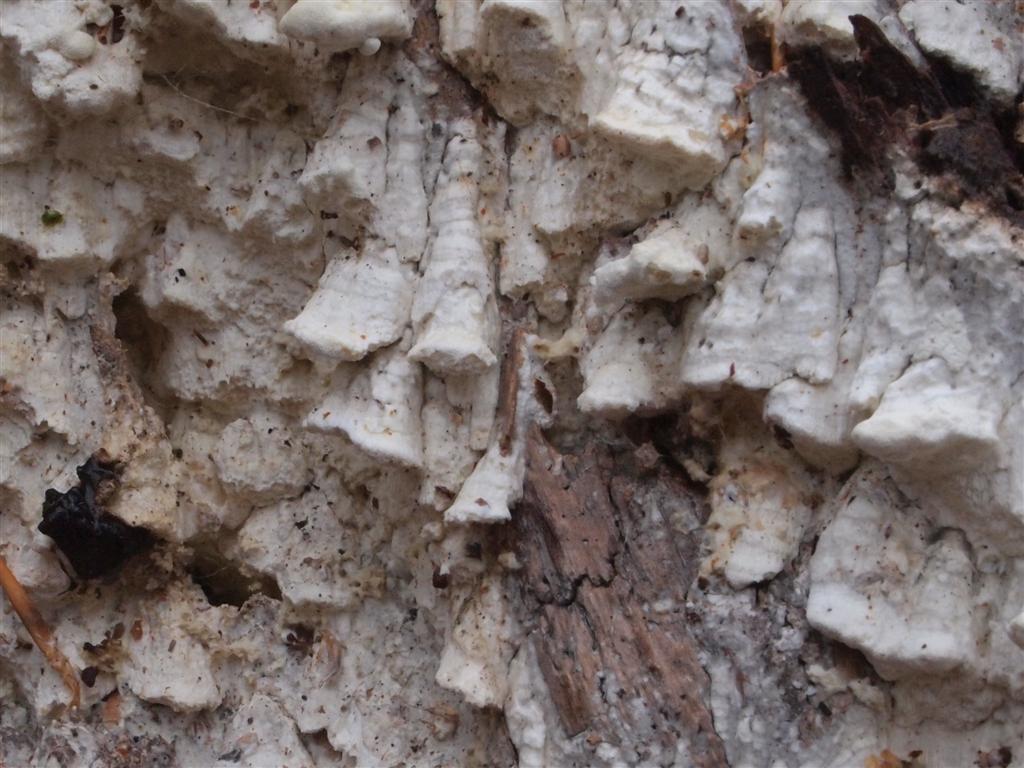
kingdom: Fungi
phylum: Basidiomycota
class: Agaricomycetes
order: Polyporales
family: Fomitopsidaceae
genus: Daedalea
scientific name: Daedalea xantha
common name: gul sejporesvamp
